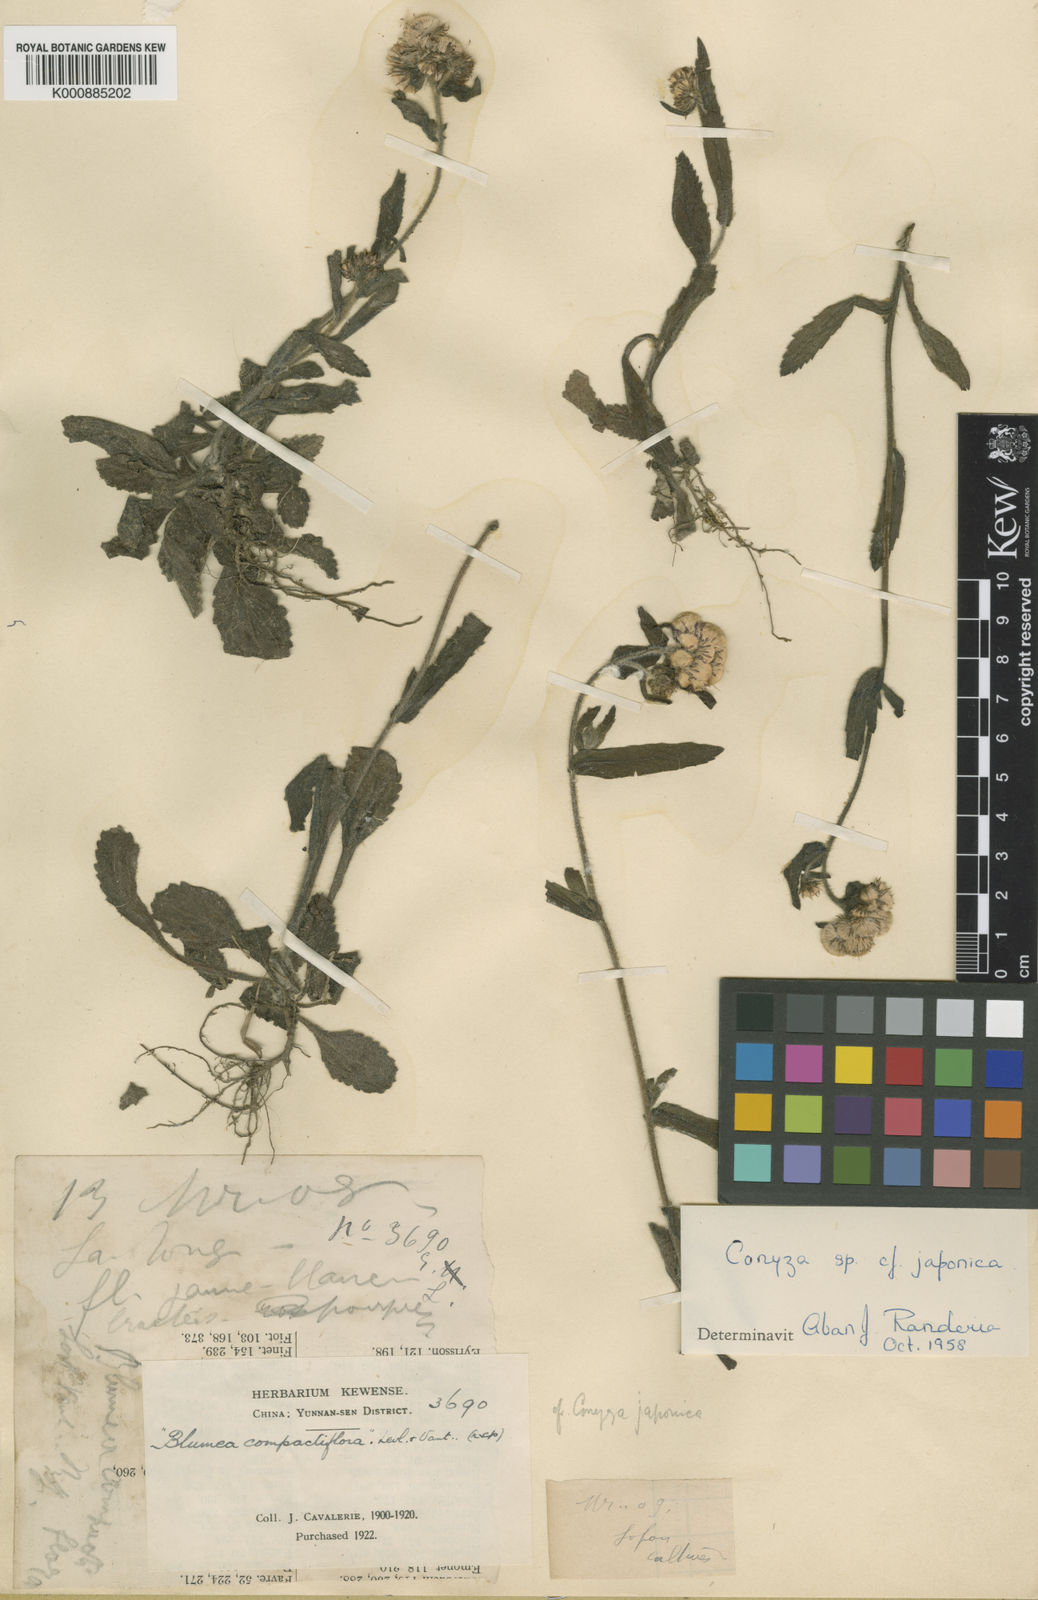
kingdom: Plantae
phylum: Tracheophyta
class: Magnoliopsida
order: Asterales
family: Asteraceae
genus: Eschenbachia
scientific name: Eschenbachia japonica
